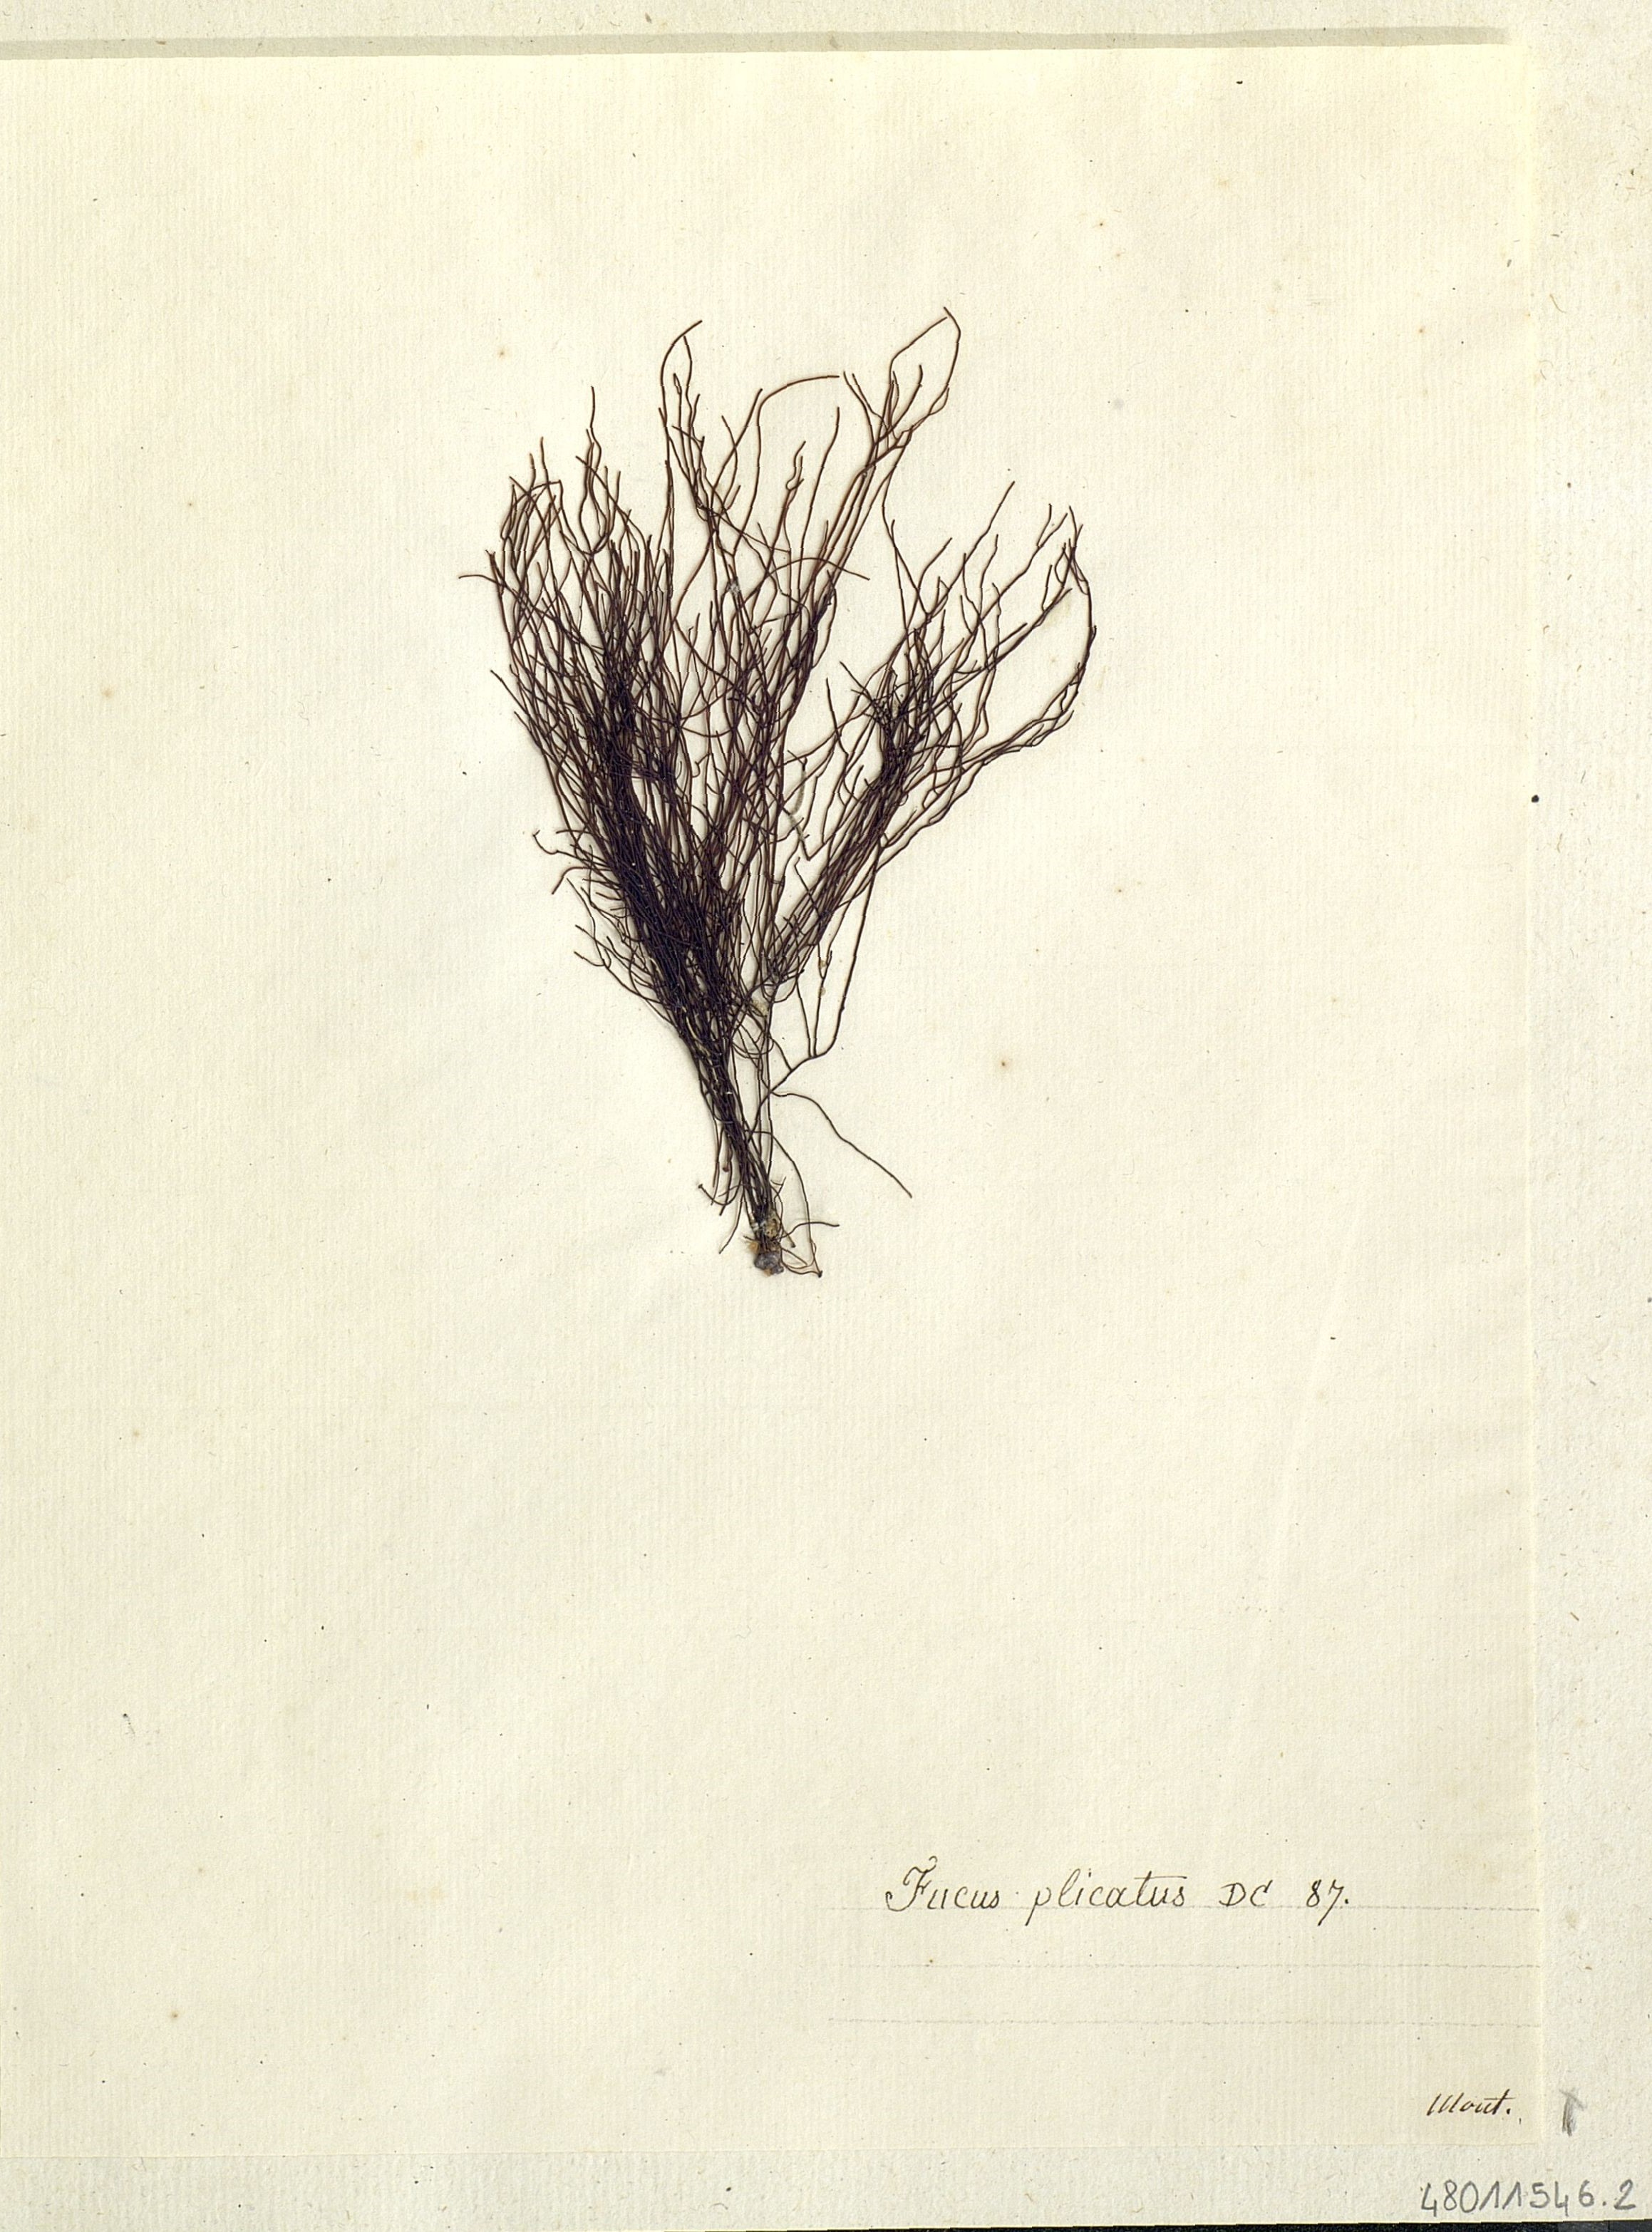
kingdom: Chromista
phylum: Ochrophyta
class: Phaeophyceae
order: Fucales
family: Fucaceae
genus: Fucus
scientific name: Fucus
